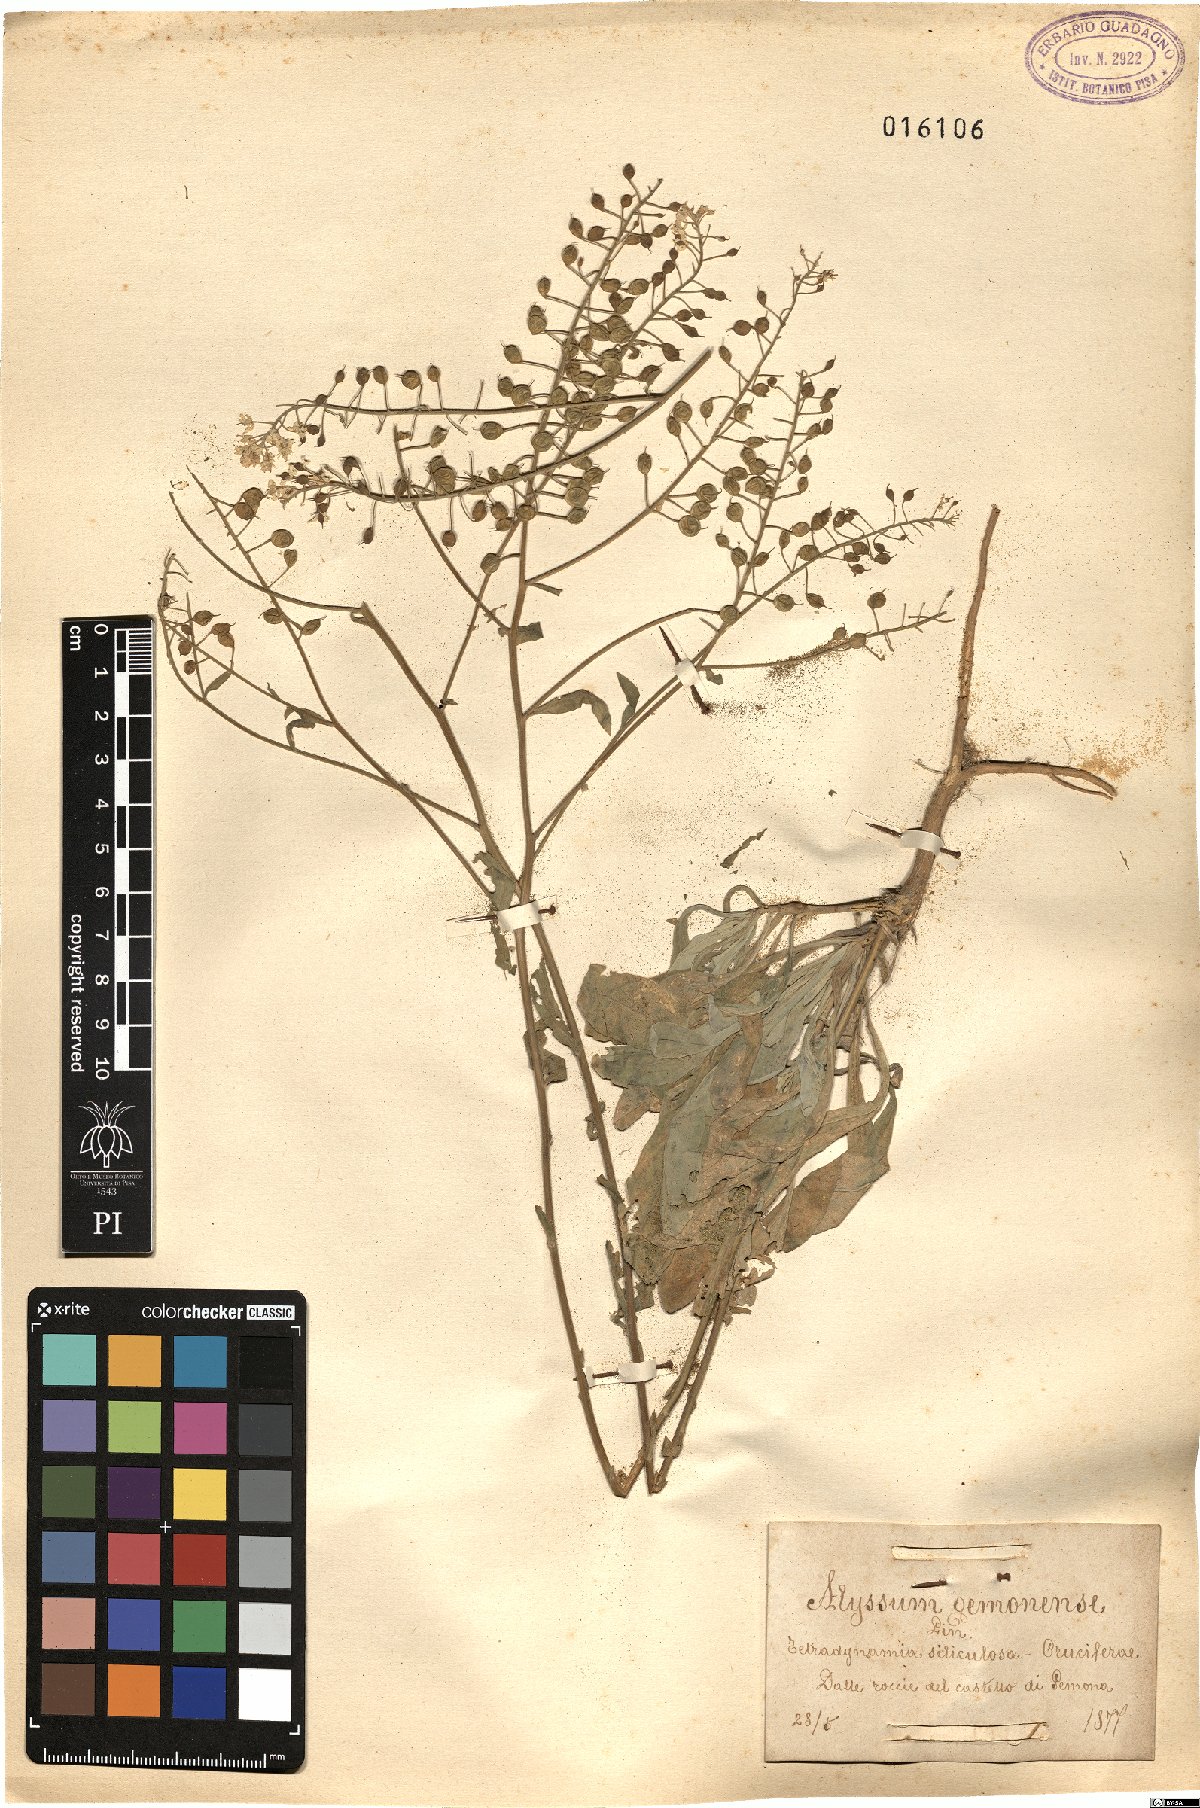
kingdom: Plantae
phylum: Tracheophyta
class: Magnoliopsida
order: Brassicales
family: Brassicaceae
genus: Aurinia
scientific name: Aurinia petraea
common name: Goldentuft
